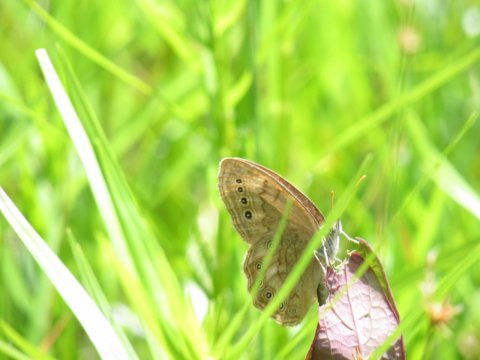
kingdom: Animalia
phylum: Arthropoda
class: Insecta
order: Lepidoptera
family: Nymphalidae
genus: Lethe
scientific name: Lethe eurydice
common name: Eyed Brown
